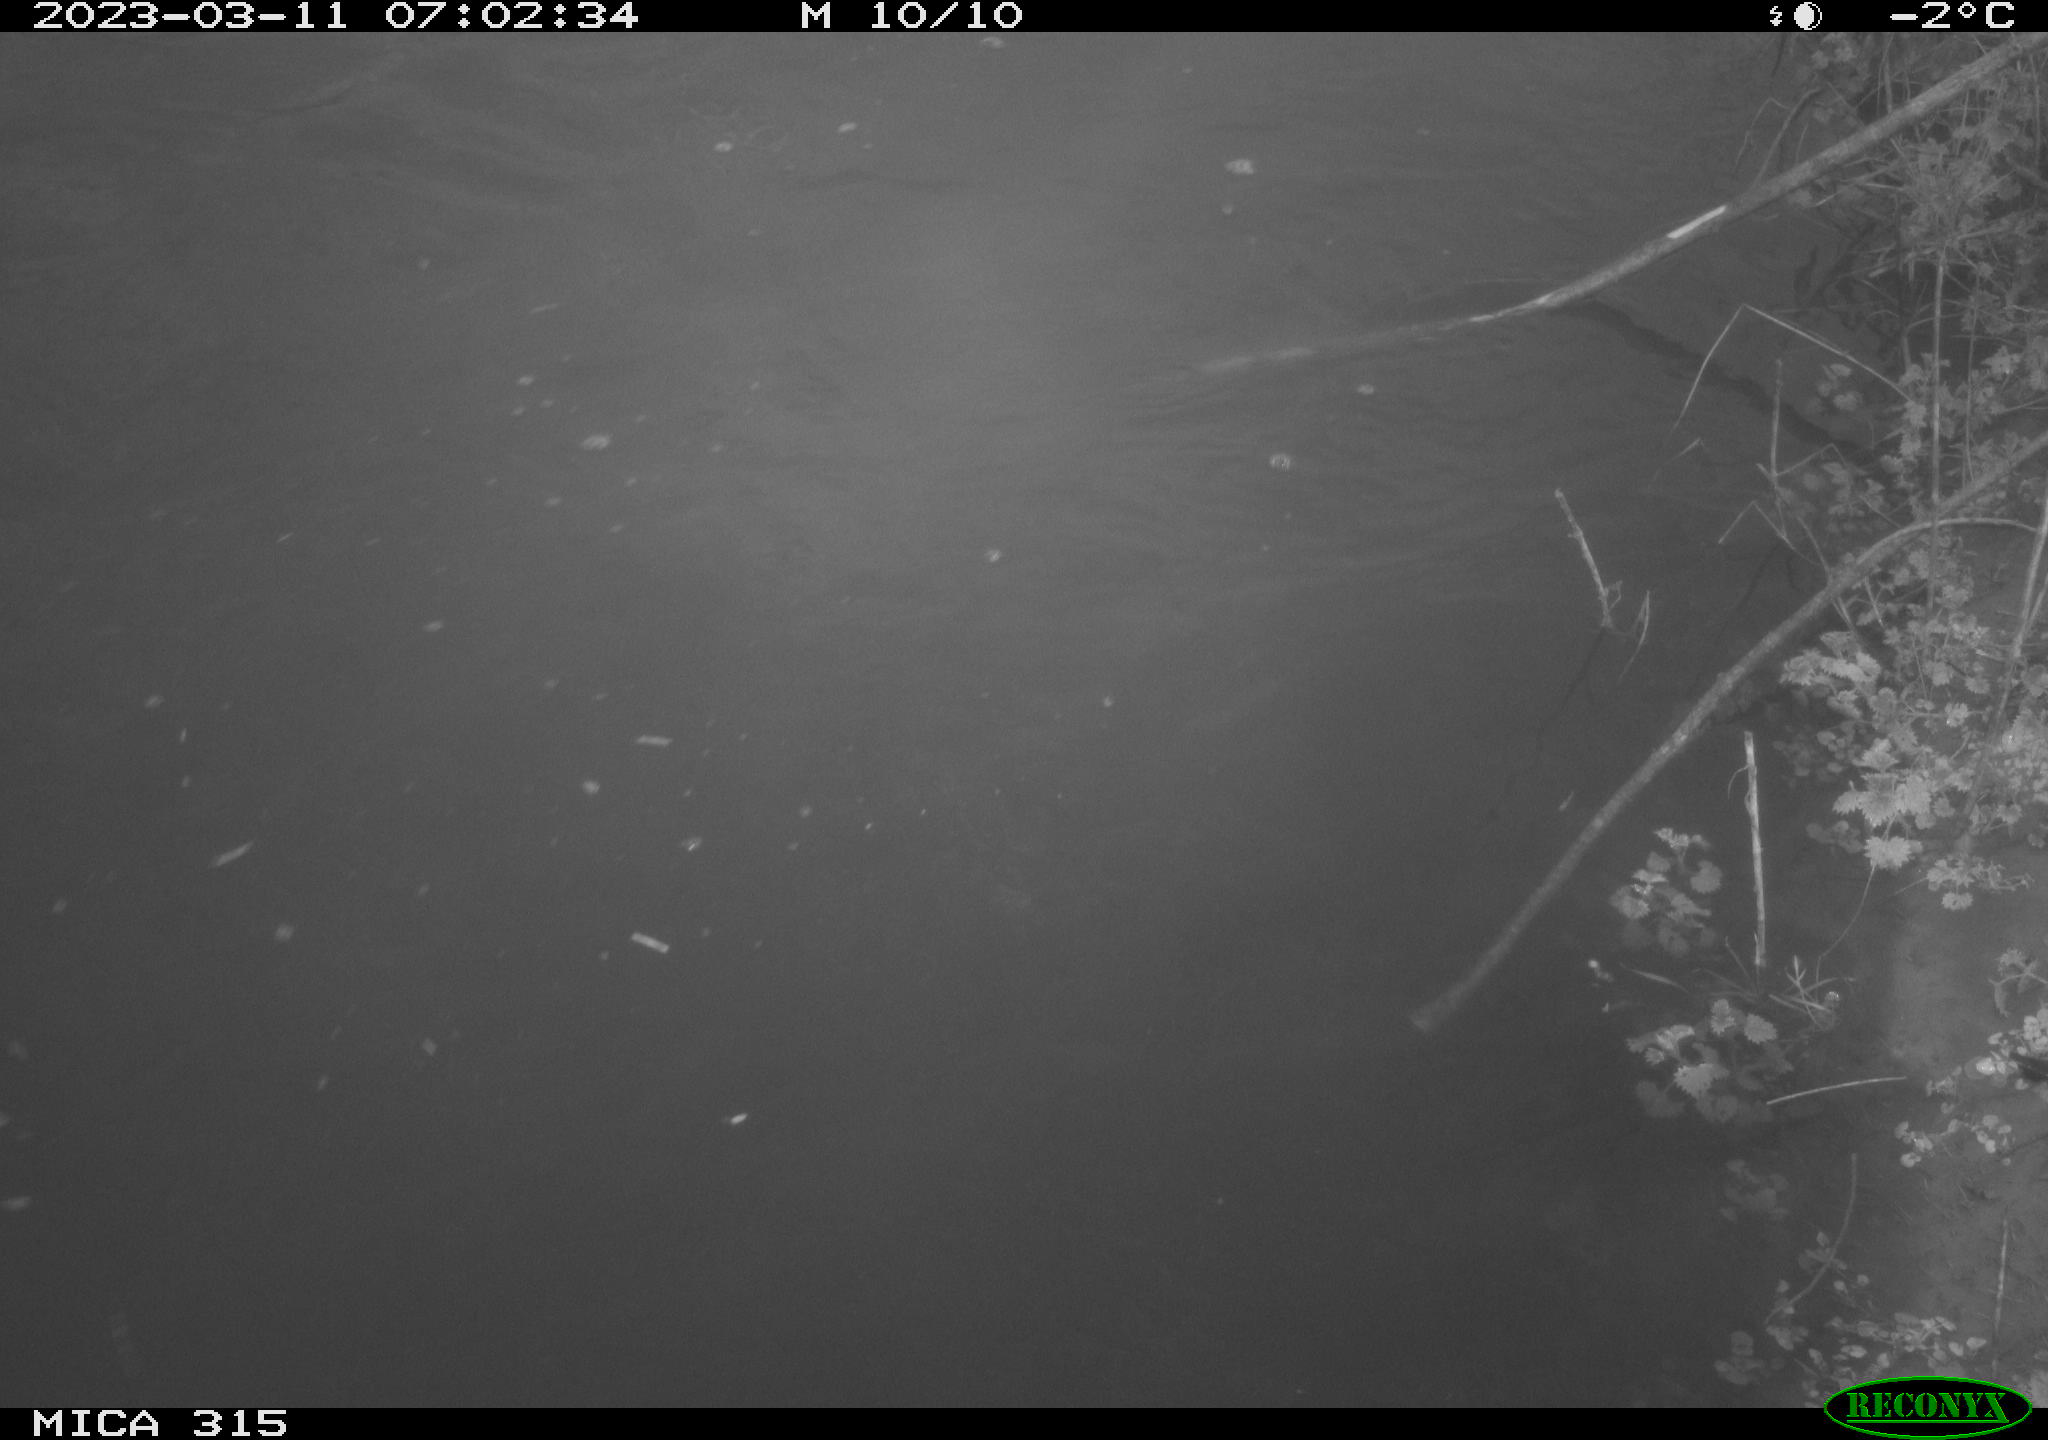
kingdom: Animalia
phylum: Chordata
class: Aves
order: Anseriformes
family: Anatidae
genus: Anas
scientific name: Anas
